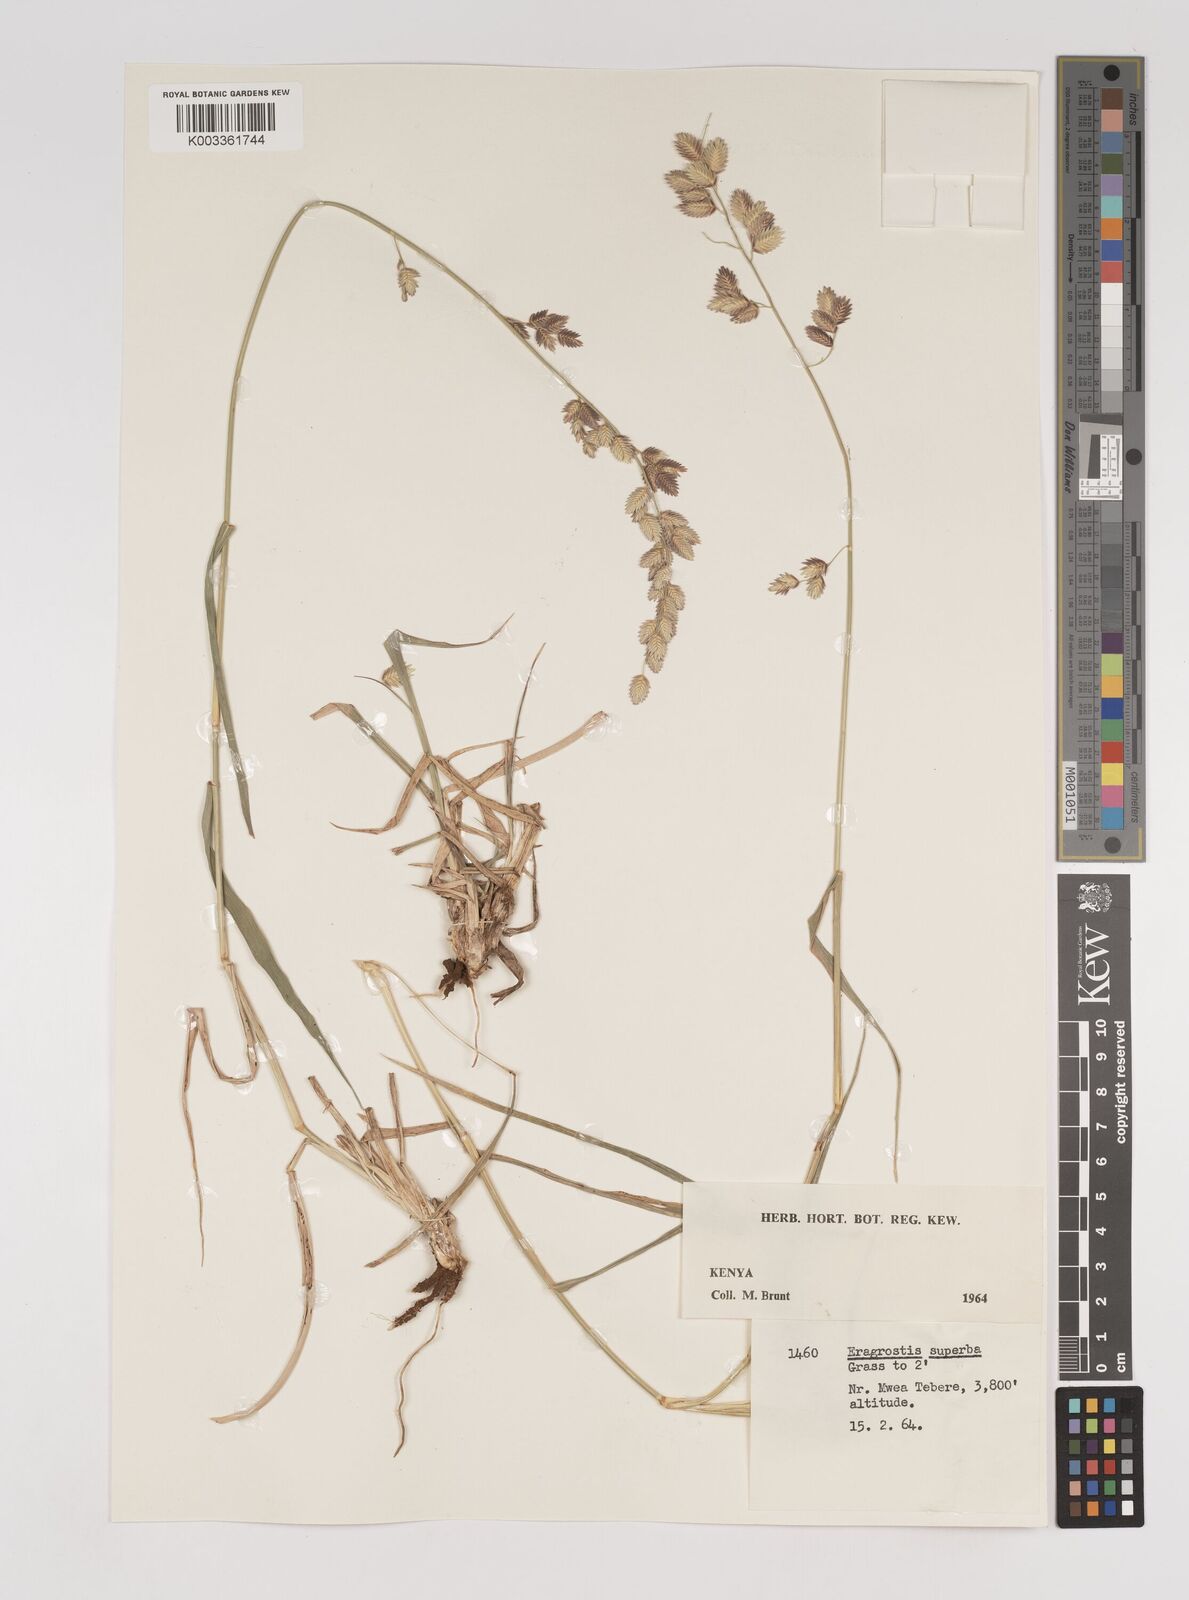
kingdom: Plantae
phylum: Tracheophyta
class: Liliopsida
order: Poales
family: Poaceae
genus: Eragrostis
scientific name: Eragrostis superba
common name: Wilman lovegrass
